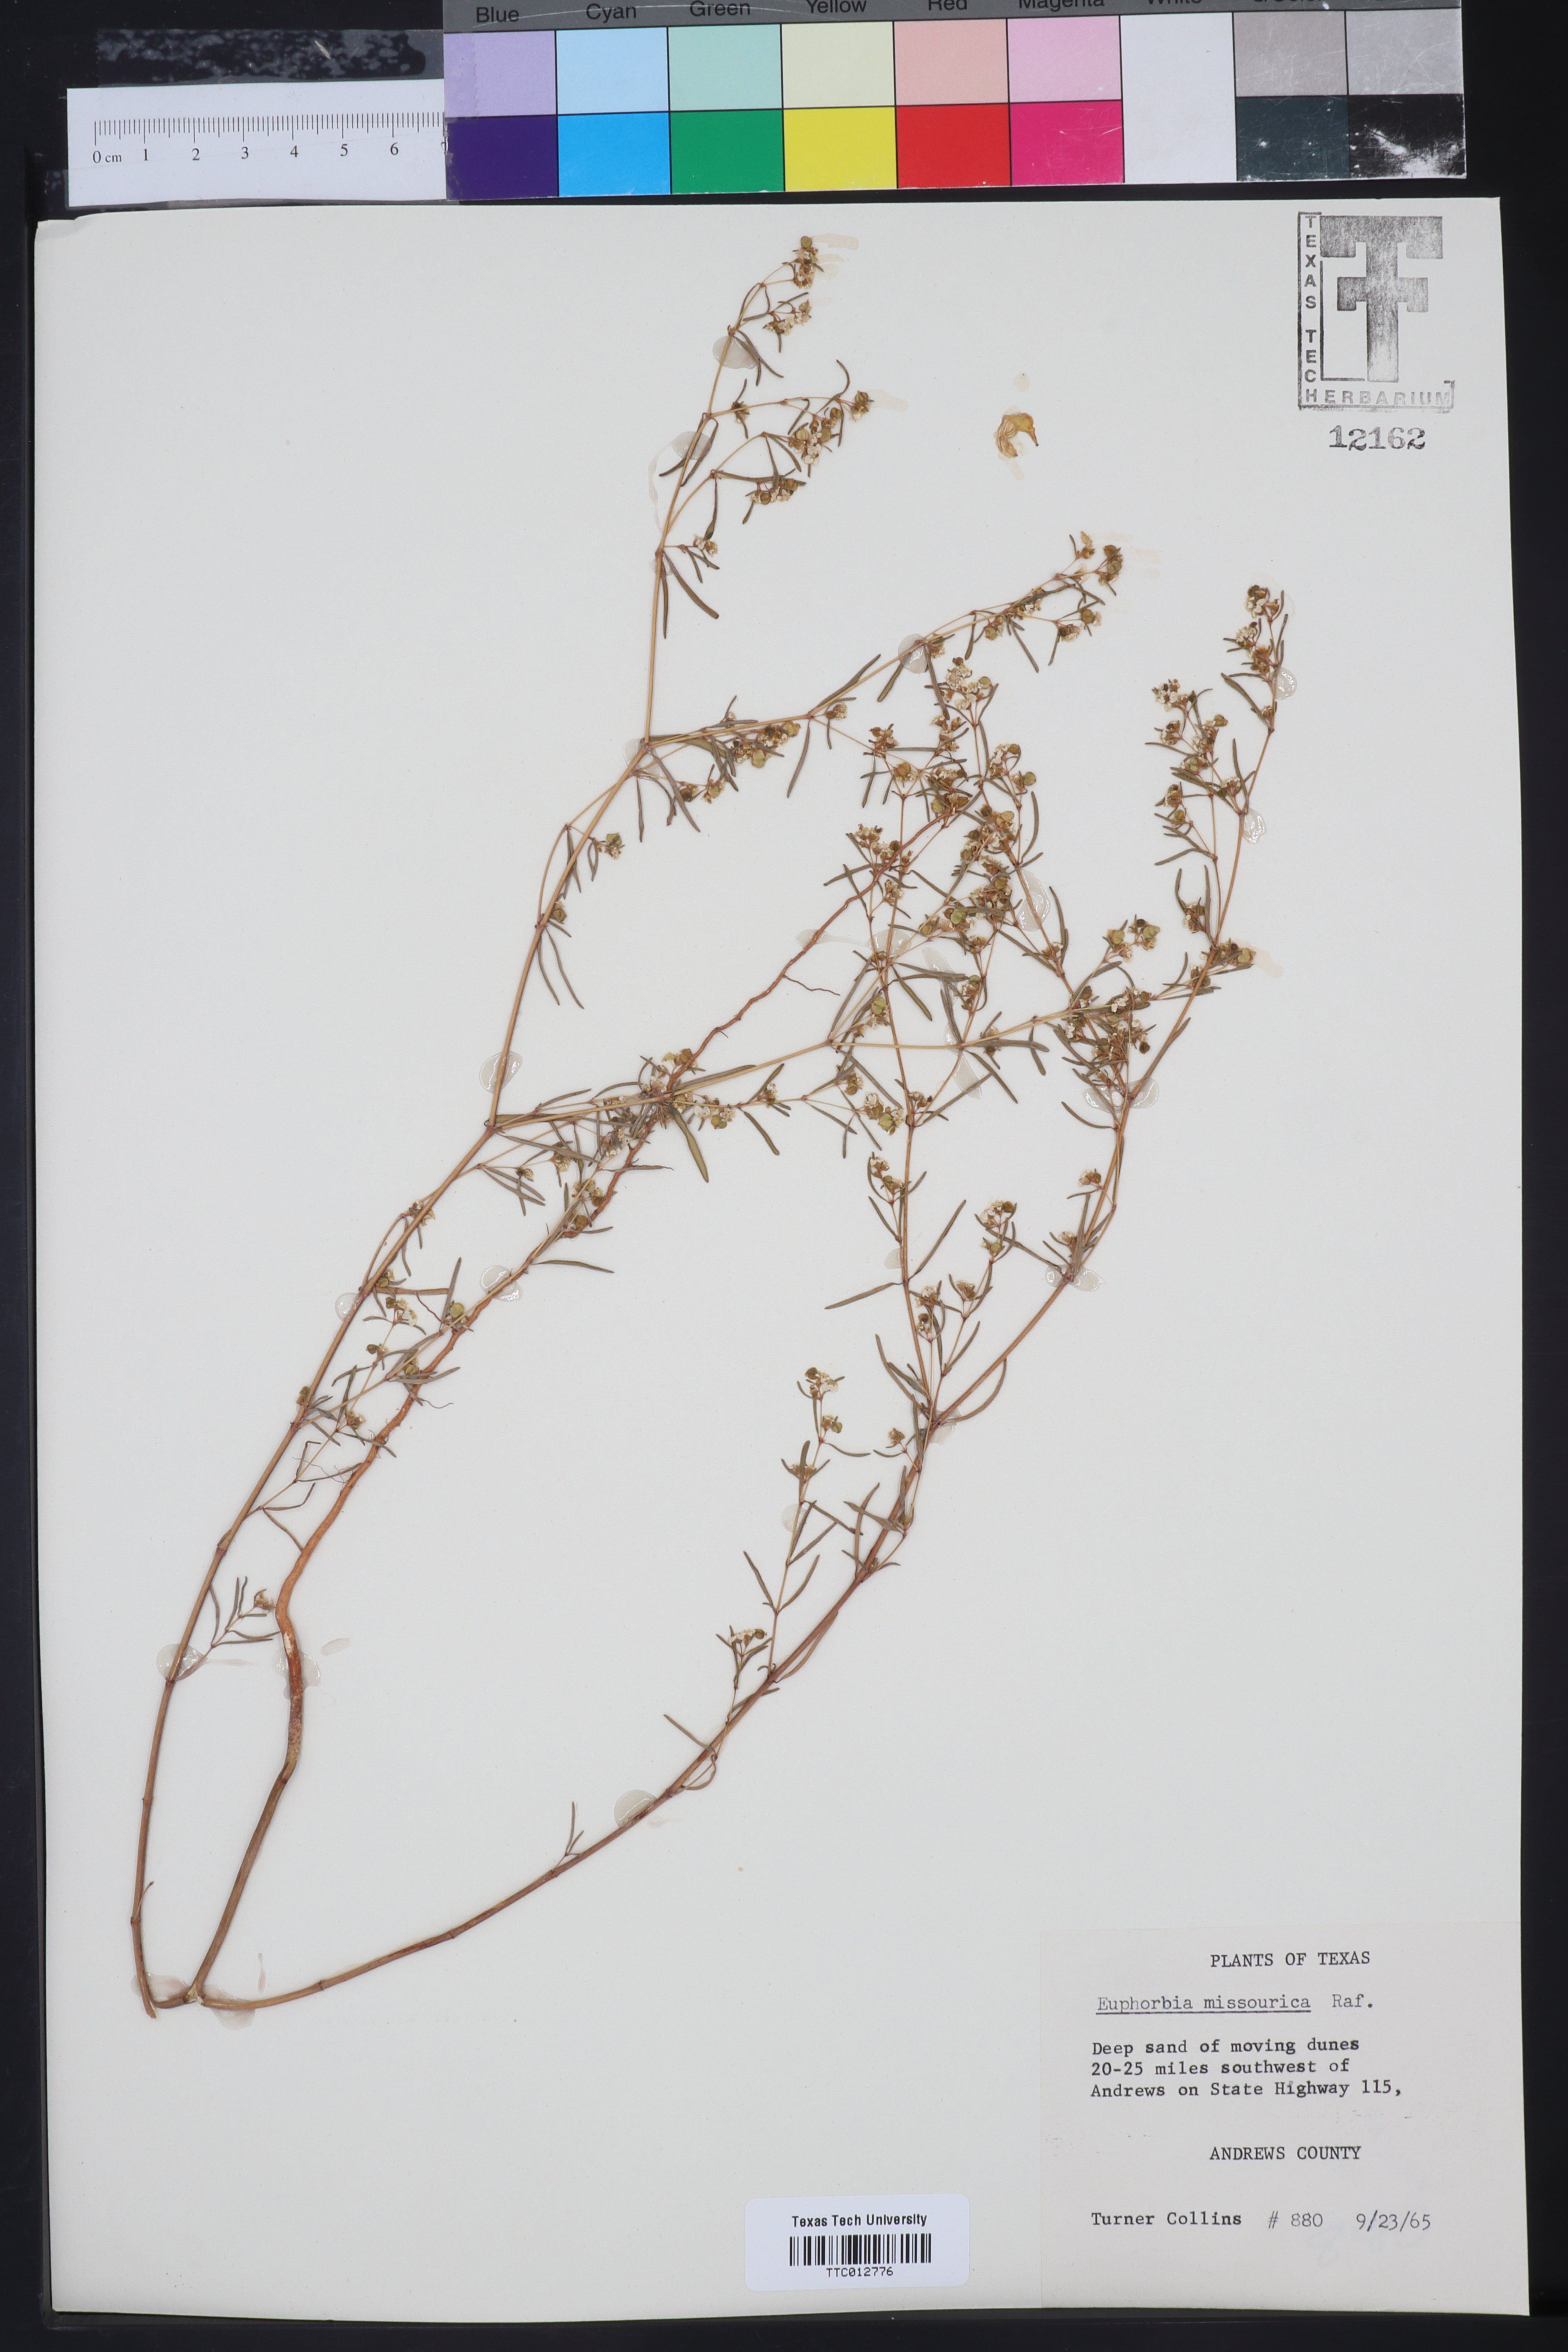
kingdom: Plantae
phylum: Tracheophyta
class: Magnoliopsida
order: Malpighiales
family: Euphorbiaceae
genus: Euphorbia
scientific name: Euphorbia missurica
